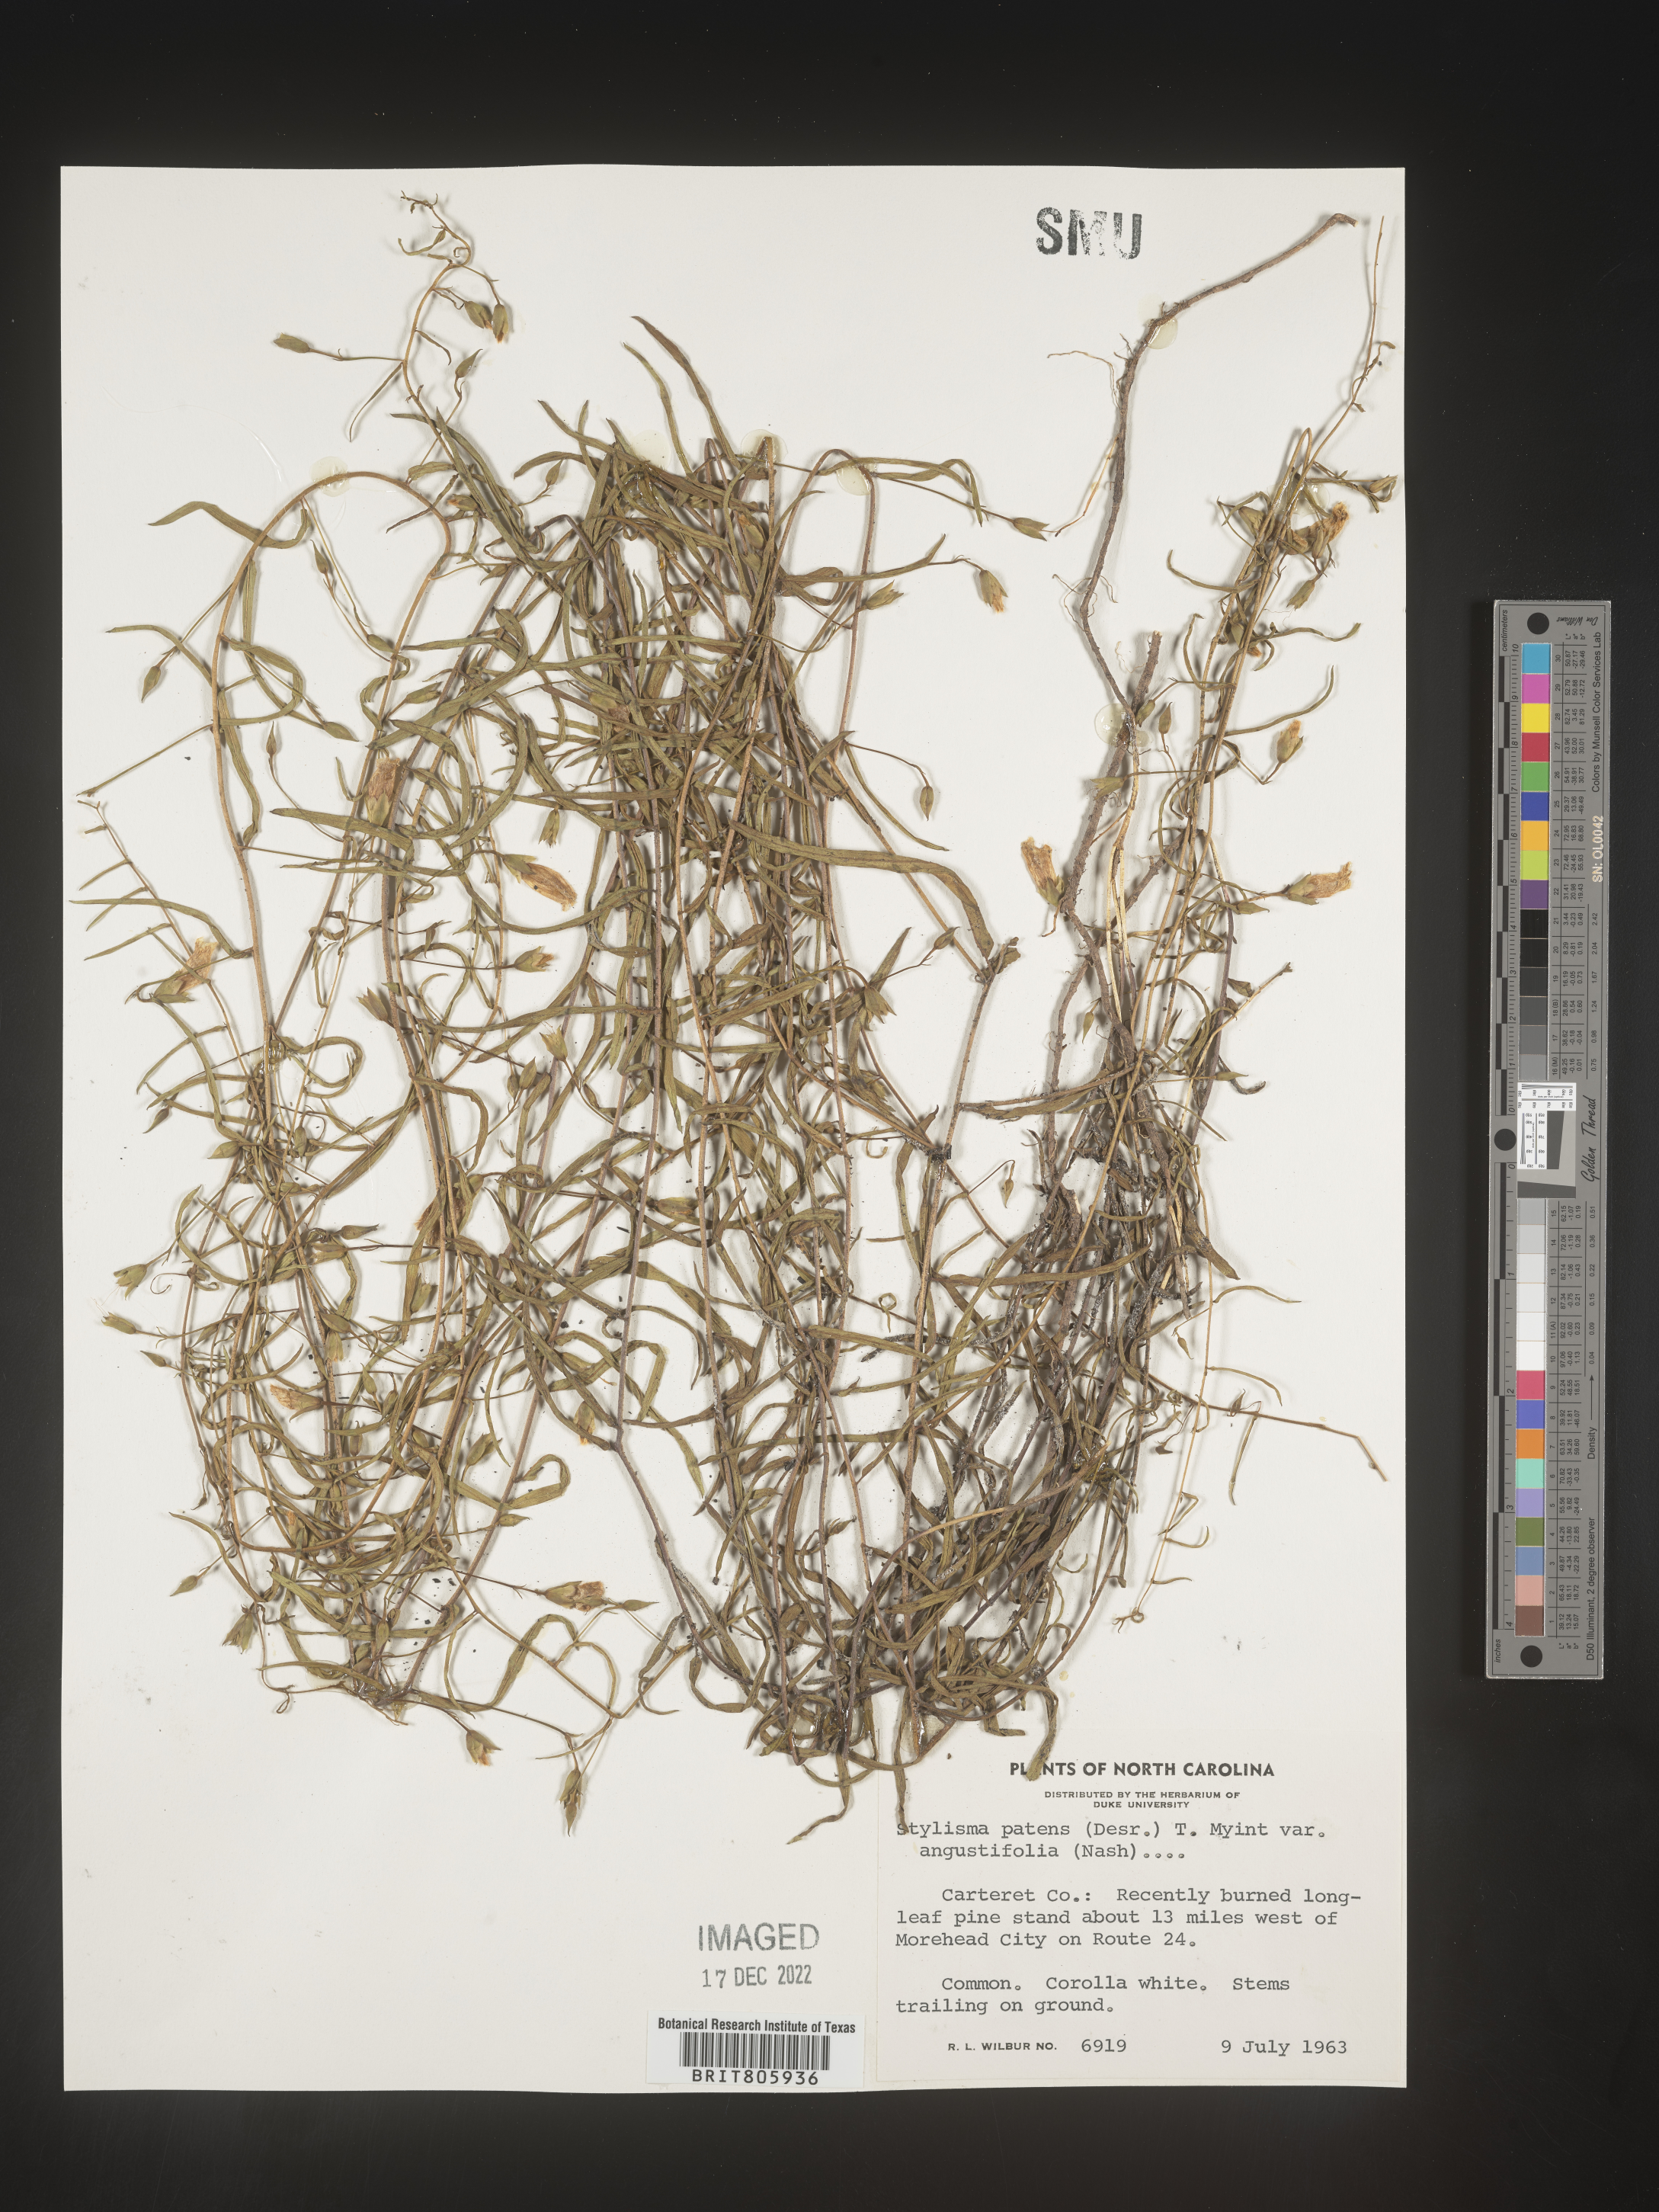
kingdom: Plantae
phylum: Tracheophyta
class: Magnoliopsida
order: Solanales
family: Convolvulaceae
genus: Stylisma
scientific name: Stylisma
